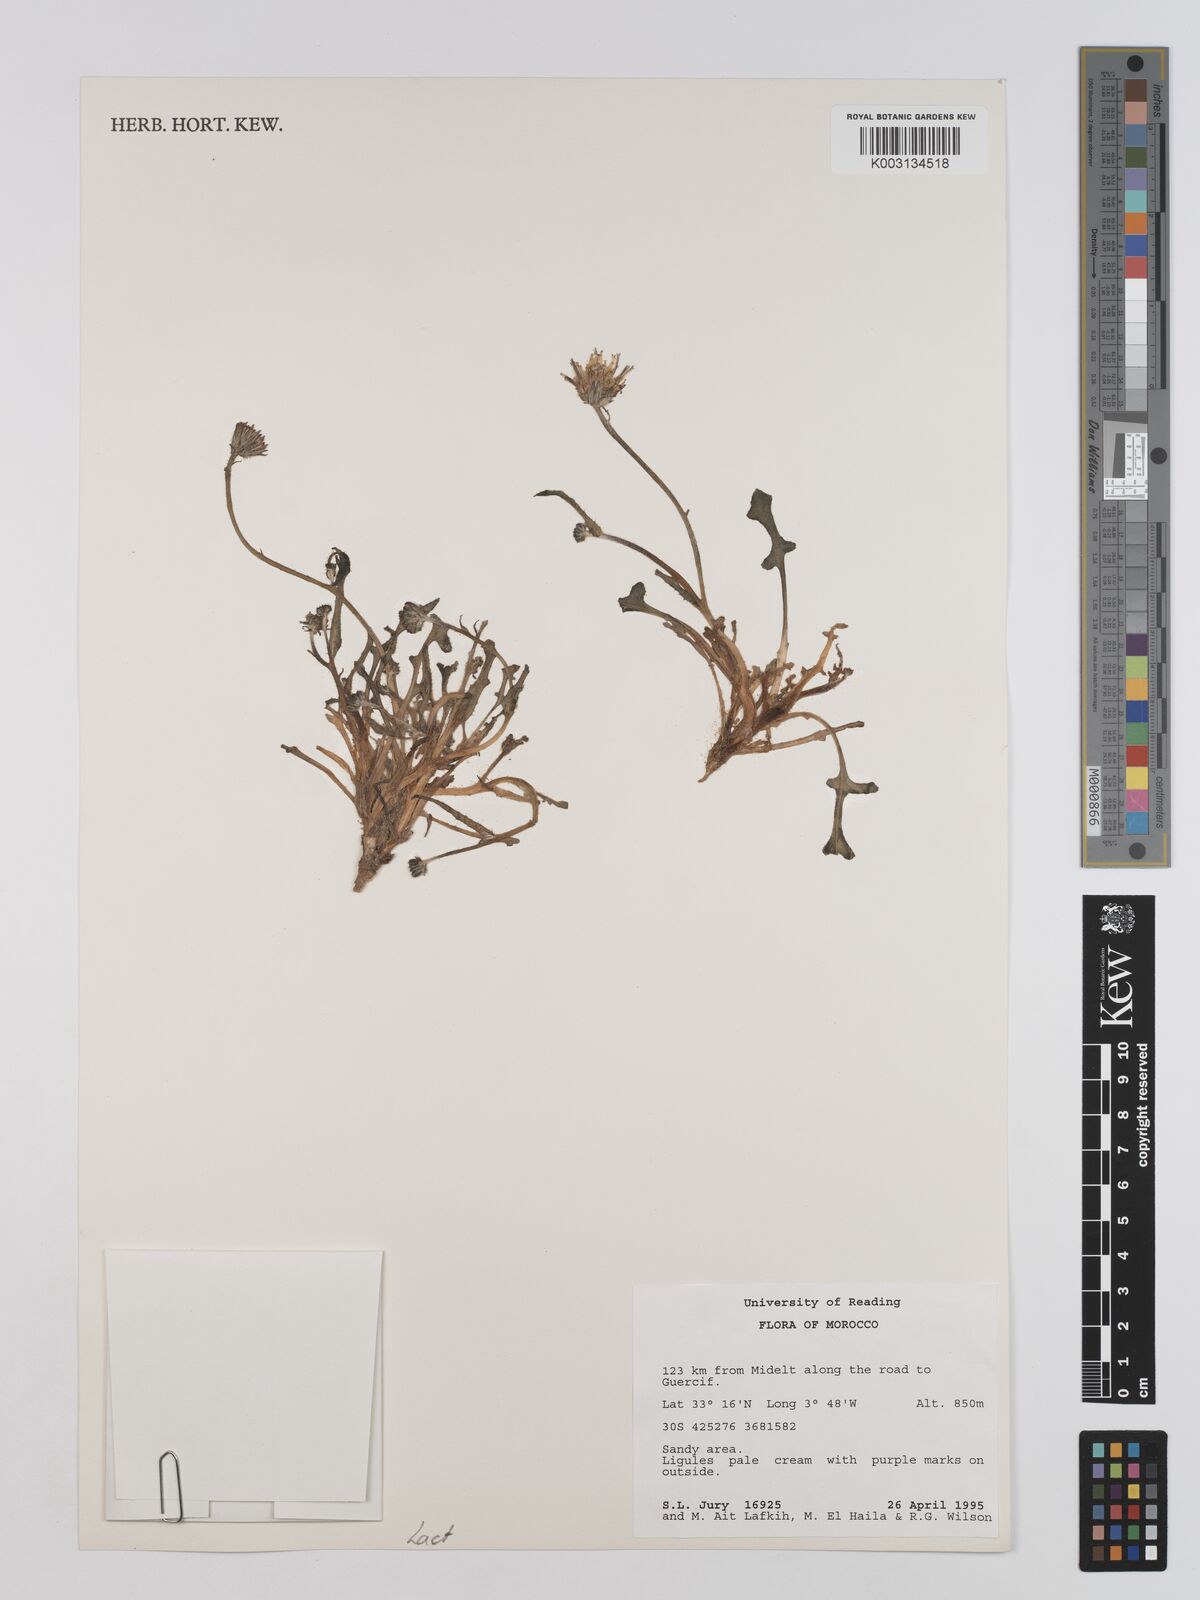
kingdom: Plantae
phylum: Tracheophyta
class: Magnoliopsida
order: Asterales
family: Asteraceae
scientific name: Asteraceae
